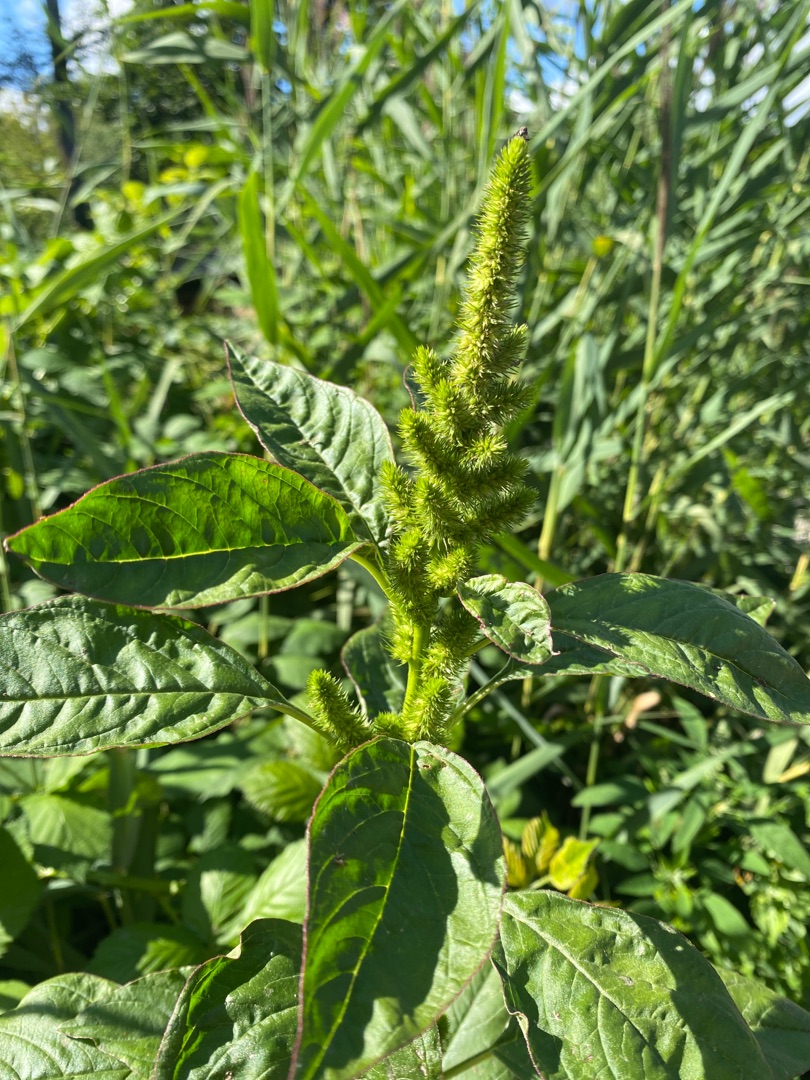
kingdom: Plantae
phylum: Tracheophyta
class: Magnoliopsida
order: Caryophyllales
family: Amaranthaceae
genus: Amaranthus
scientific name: Amaranthus powellii
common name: Tykgrenet top-amarant
